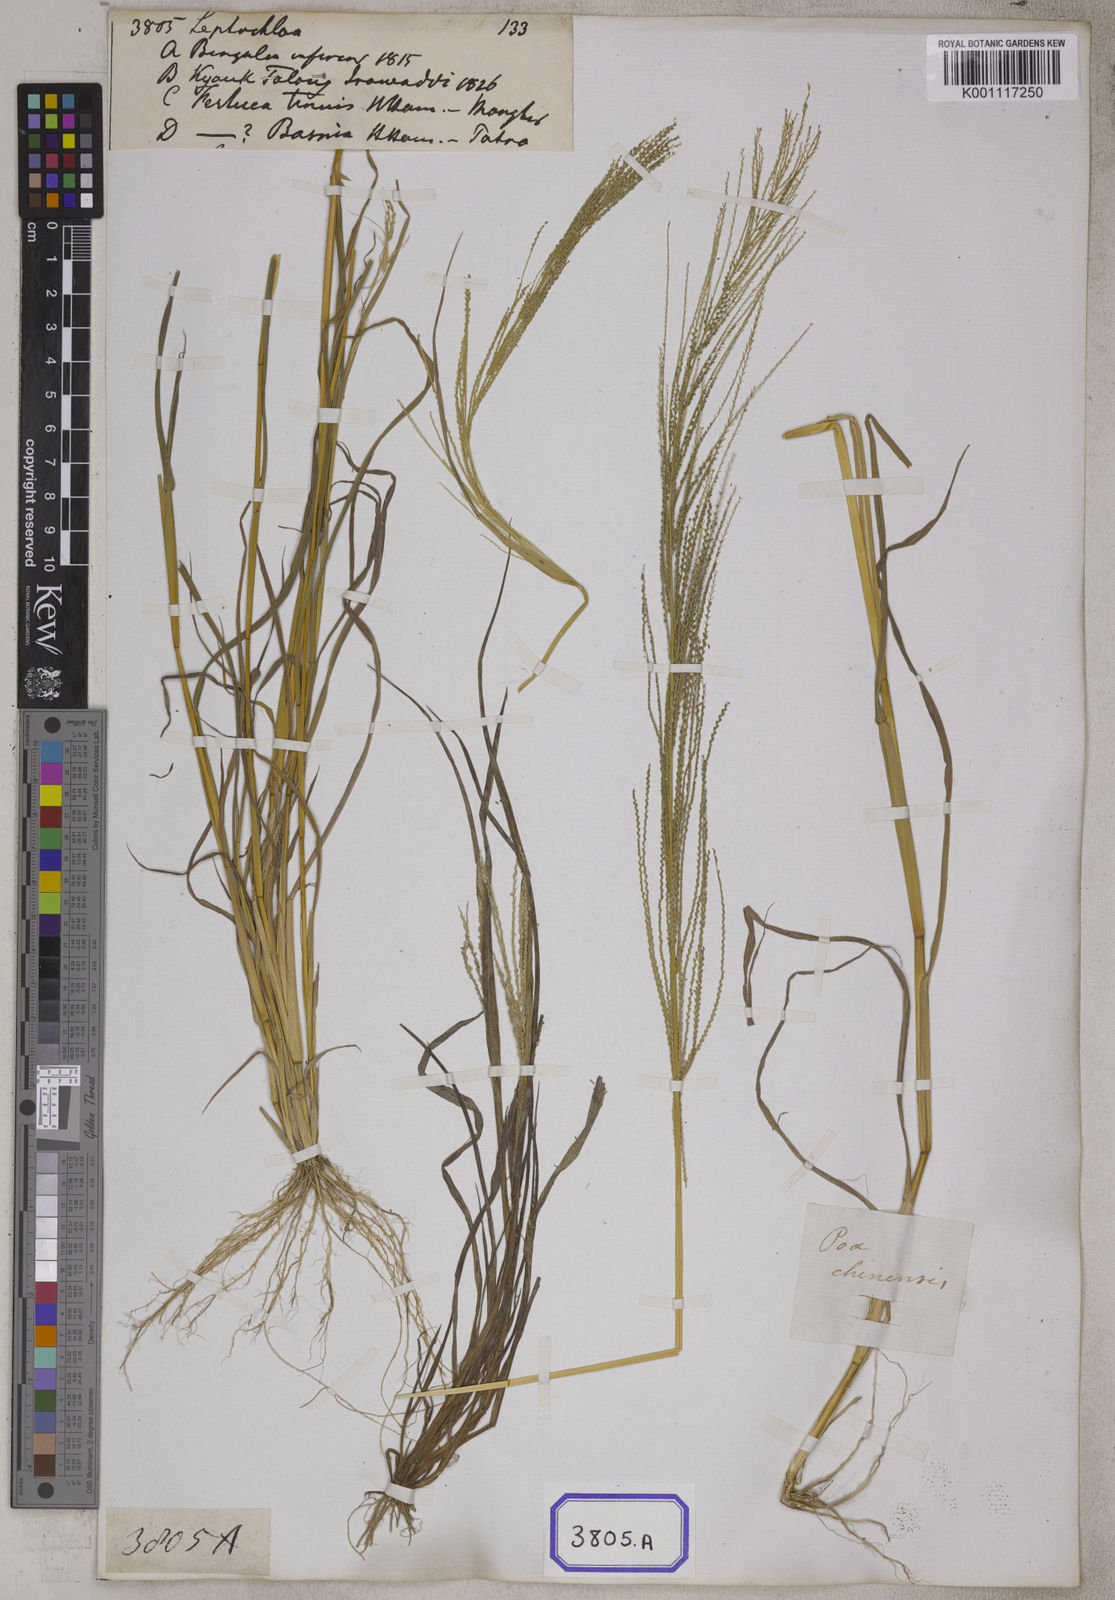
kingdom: Plantae
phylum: Tracheophyta
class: Liliopsida
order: Poales
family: Poaceae
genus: Leptochloa
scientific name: Leptochloa
